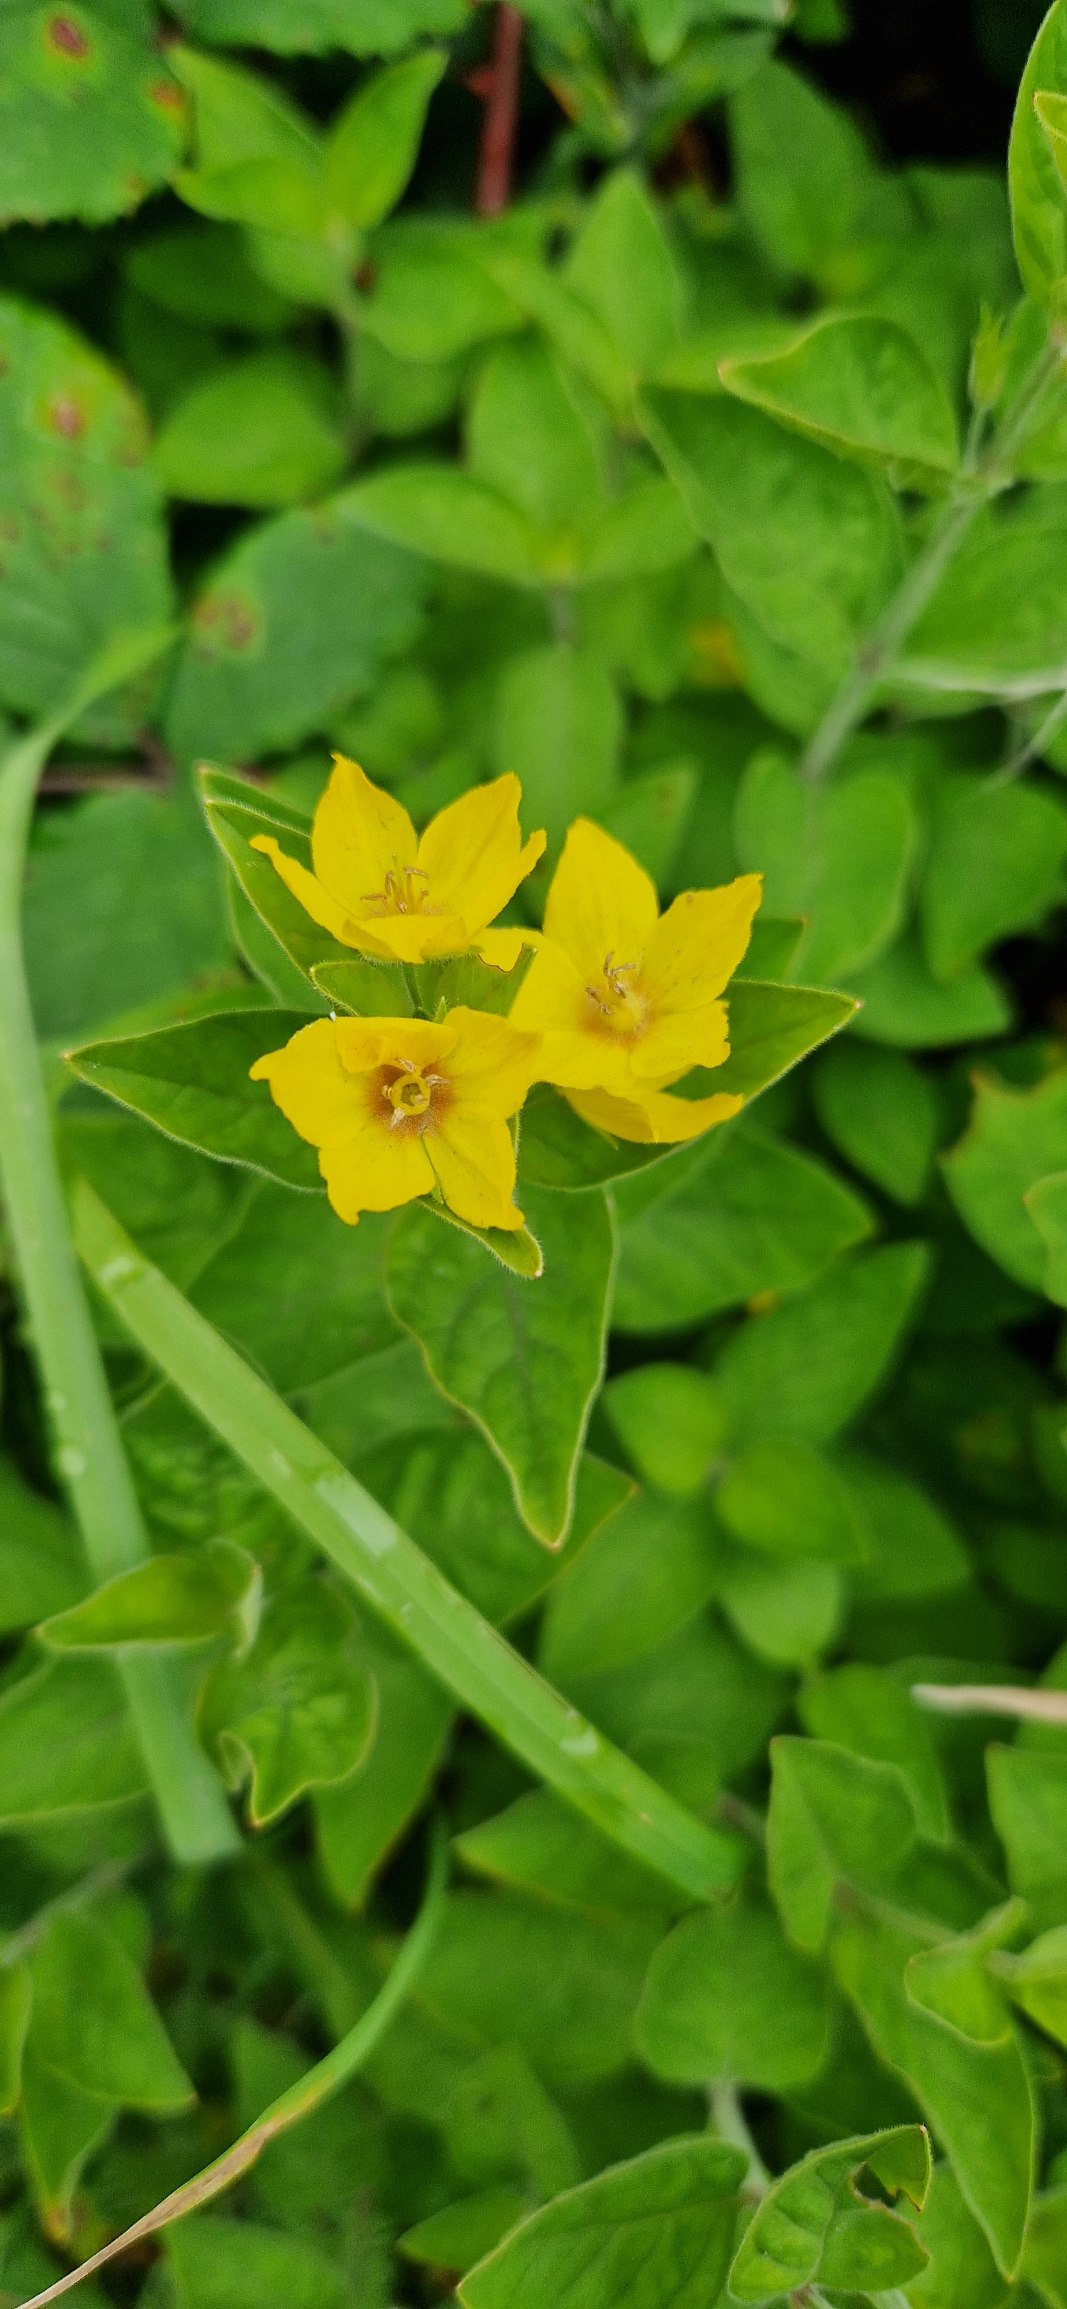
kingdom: Plantae
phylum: Tracheophyta
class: Magnoliopsida
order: Ericales
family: Primulaceae
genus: Lysimachia
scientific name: Lysimachia punctata
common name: Prikbladet fredløs
